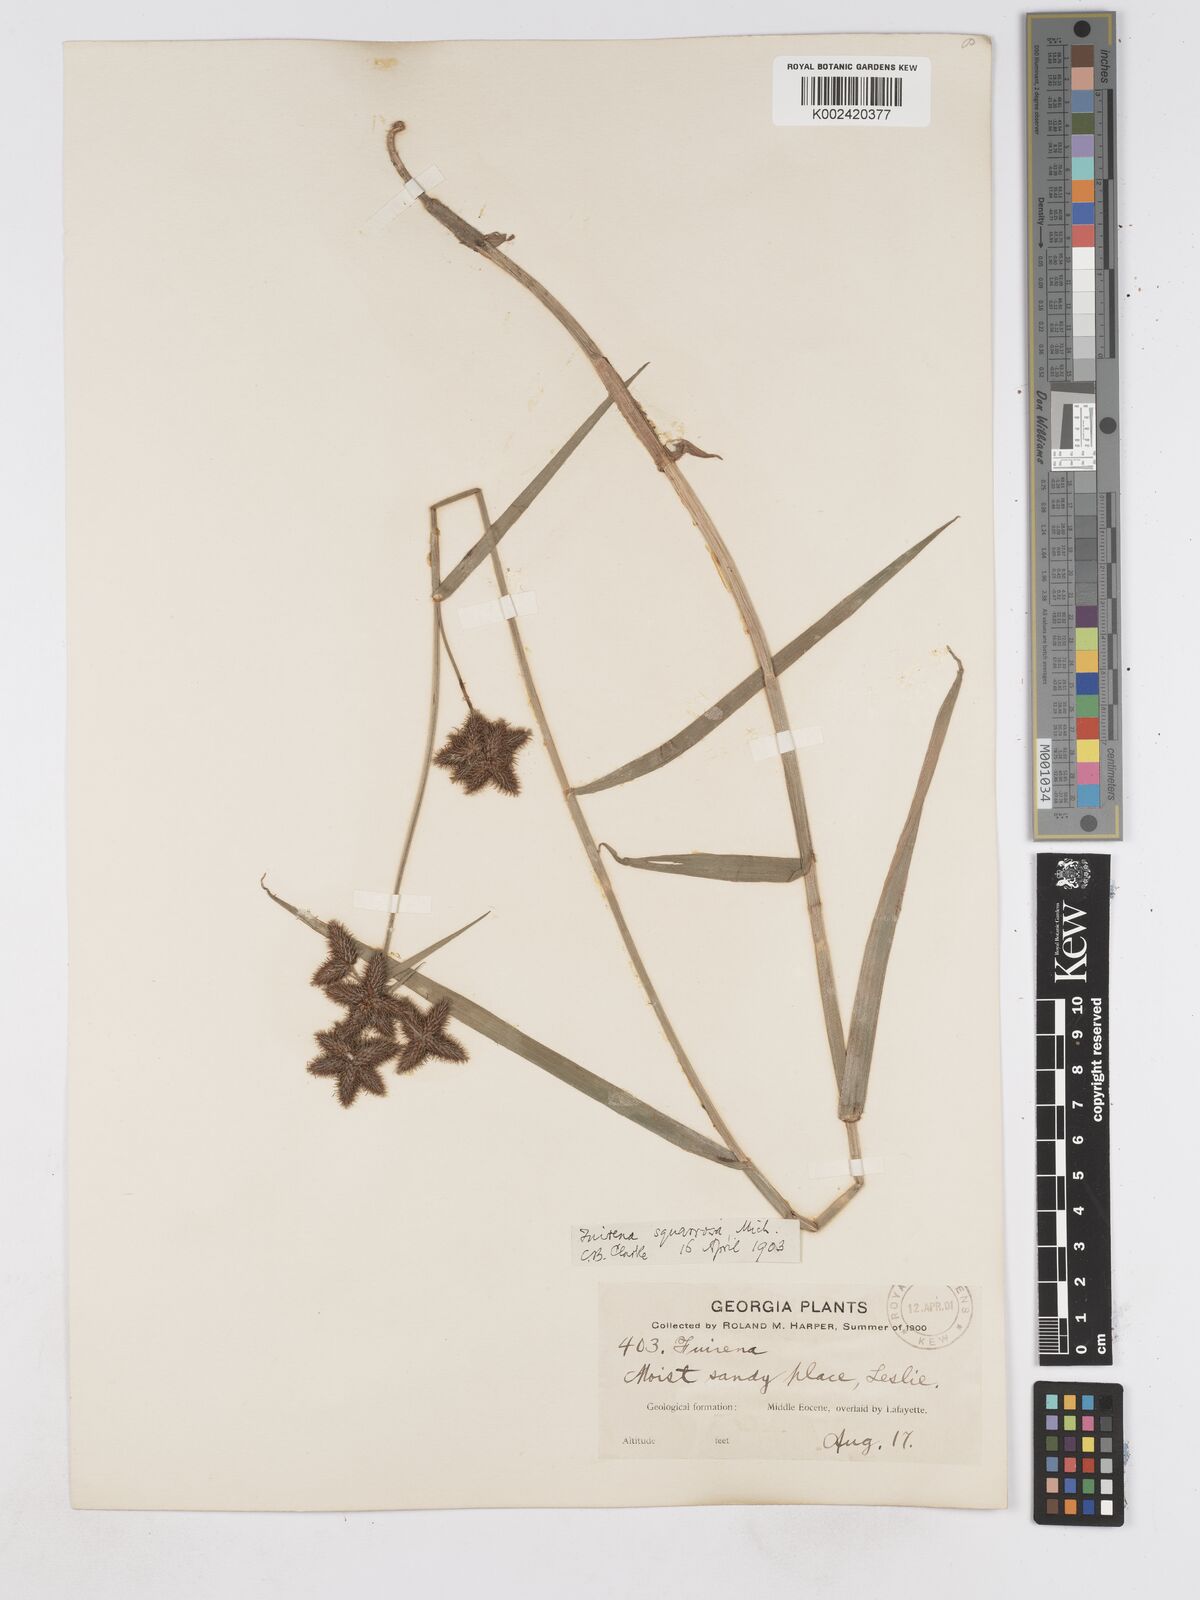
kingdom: Plantae
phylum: Tracheophyta
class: Liliopsida
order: Poales
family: Cyperaceae
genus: Fuirena
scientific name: Fuirena squarrosa
